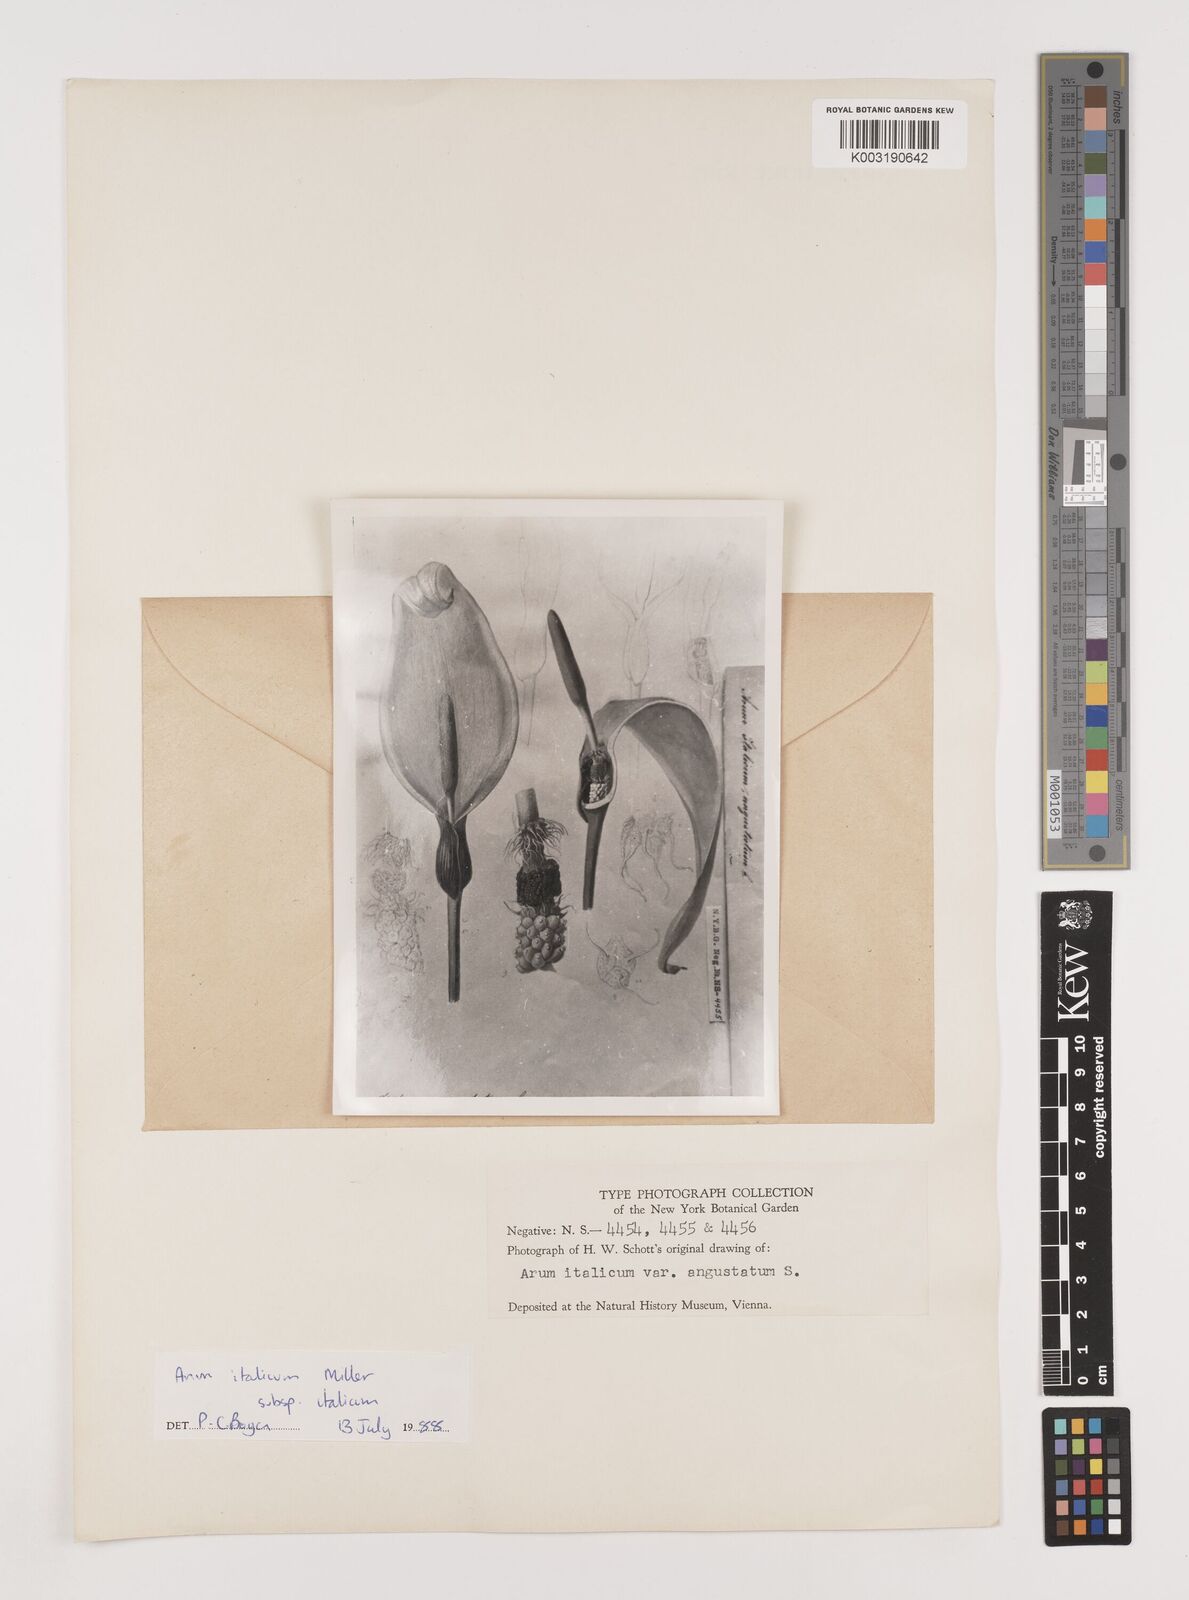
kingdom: Plantae
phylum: Tracheophyta
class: Liliopsida
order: Alismatales
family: Araceae
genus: Arum
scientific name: Arum italicum
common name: Italian lords-and-ladies
